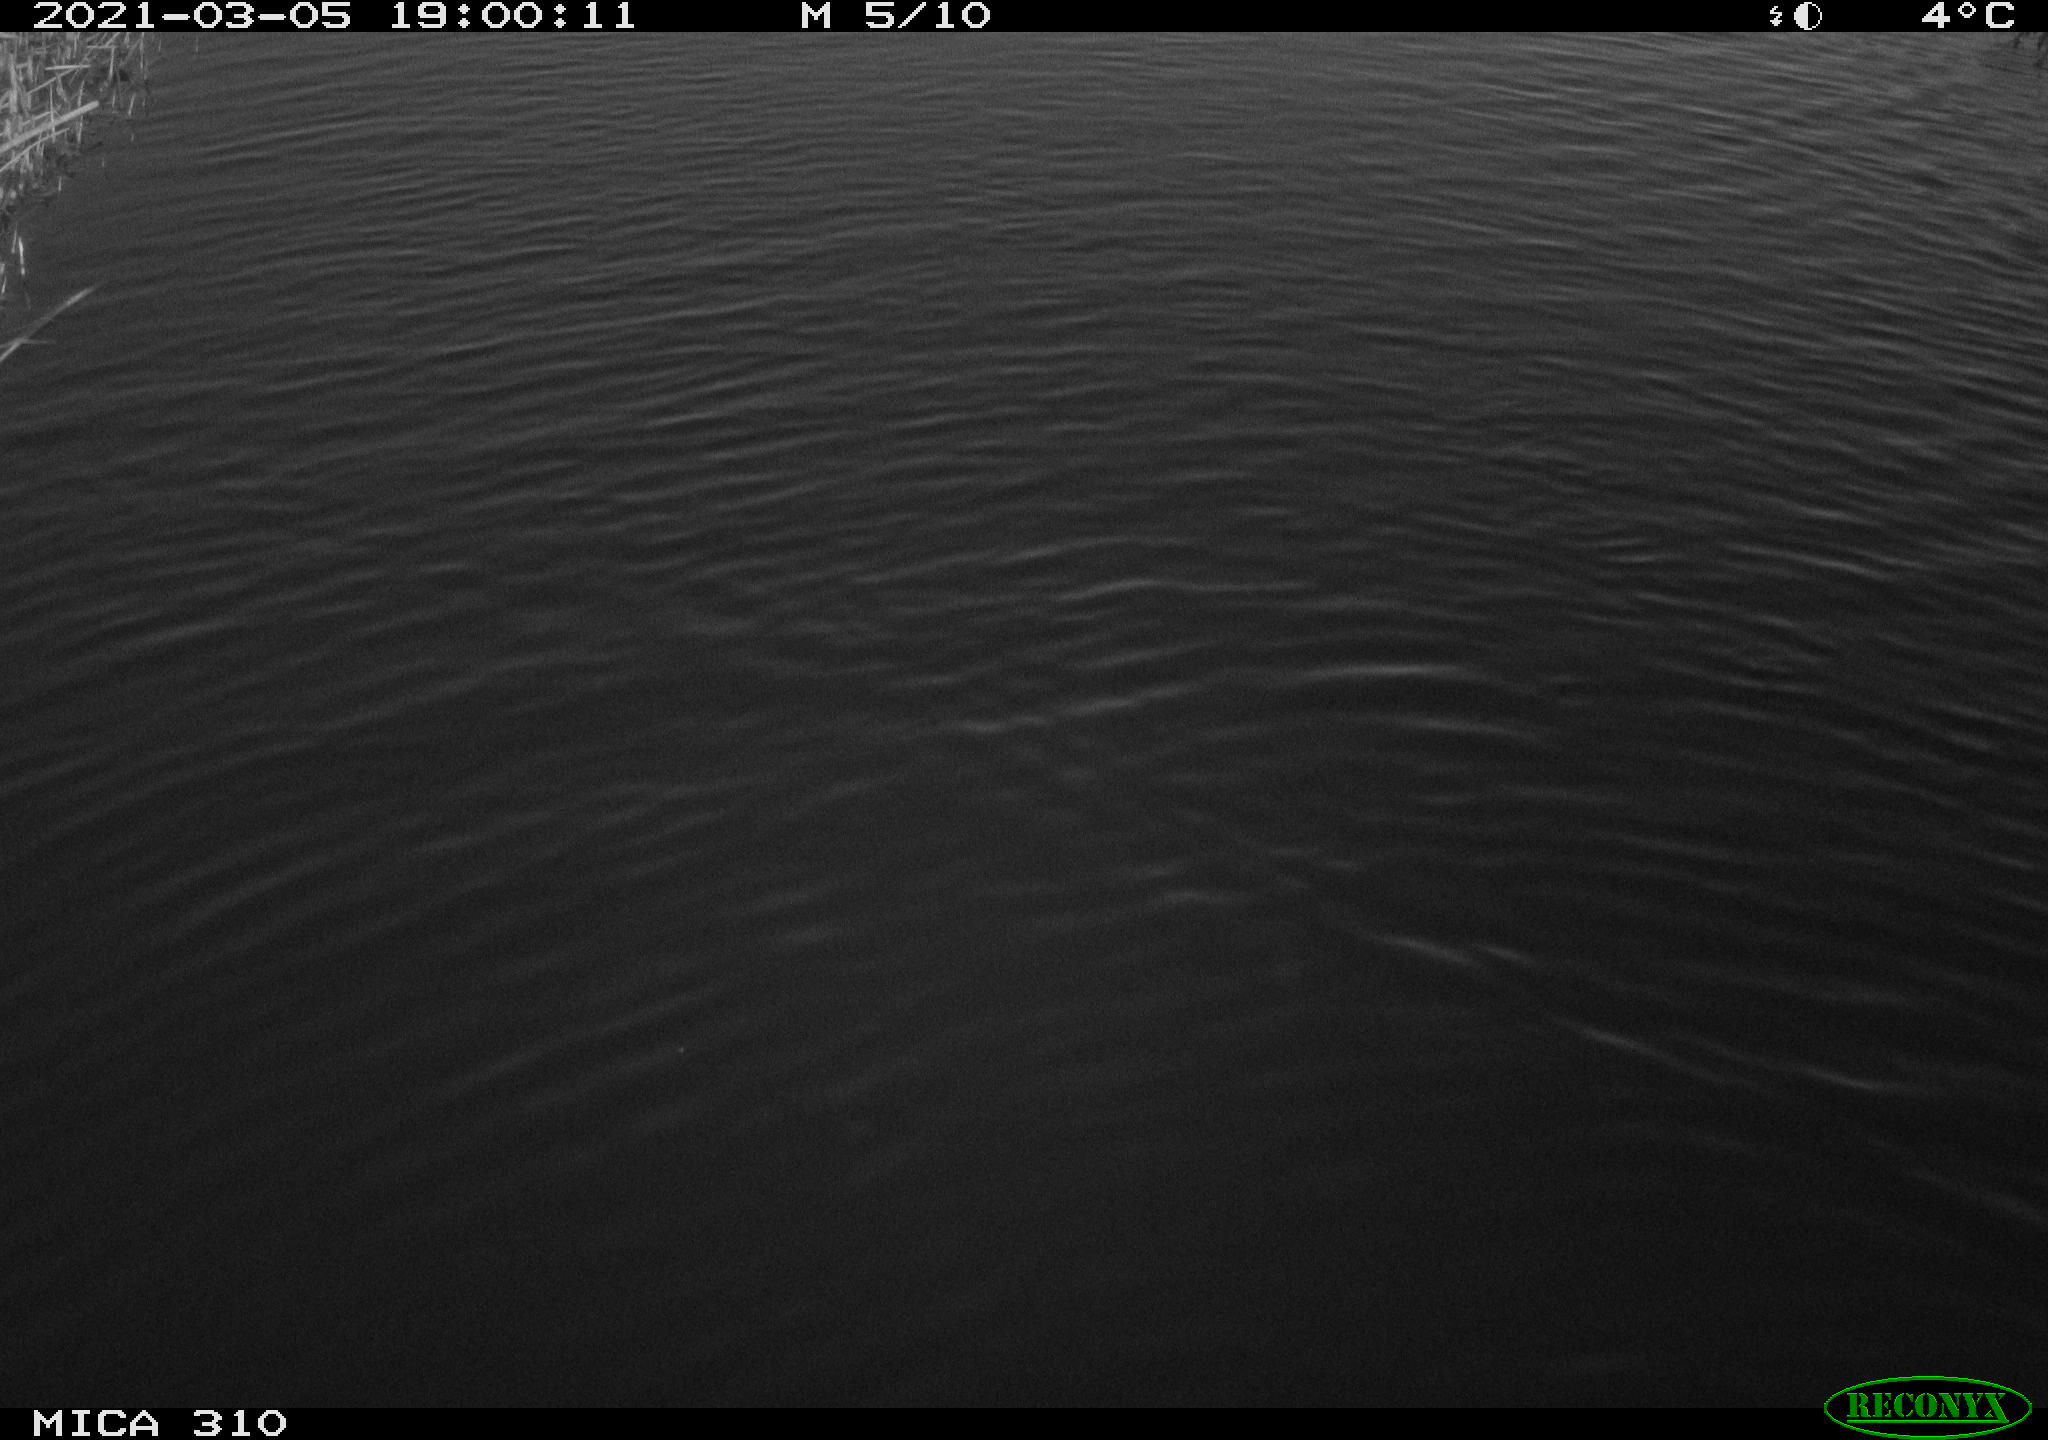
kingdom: Animalia
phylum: Chordata
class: Aves
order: Gruiformes
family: Rallidae
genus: Gallinula
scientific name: Gallinula chloropus
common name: Common moorhen
